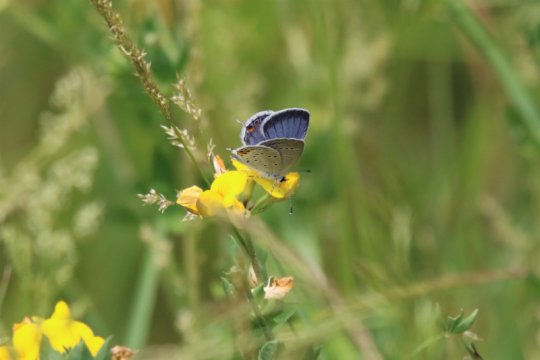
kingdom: Animalia
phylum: Arthropoda
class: Insecta
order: Lepidoptera
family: Lycaenidae
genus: Elkalyce
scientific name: Elkalyce comyntas
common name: Eastern Tailed-Blue
